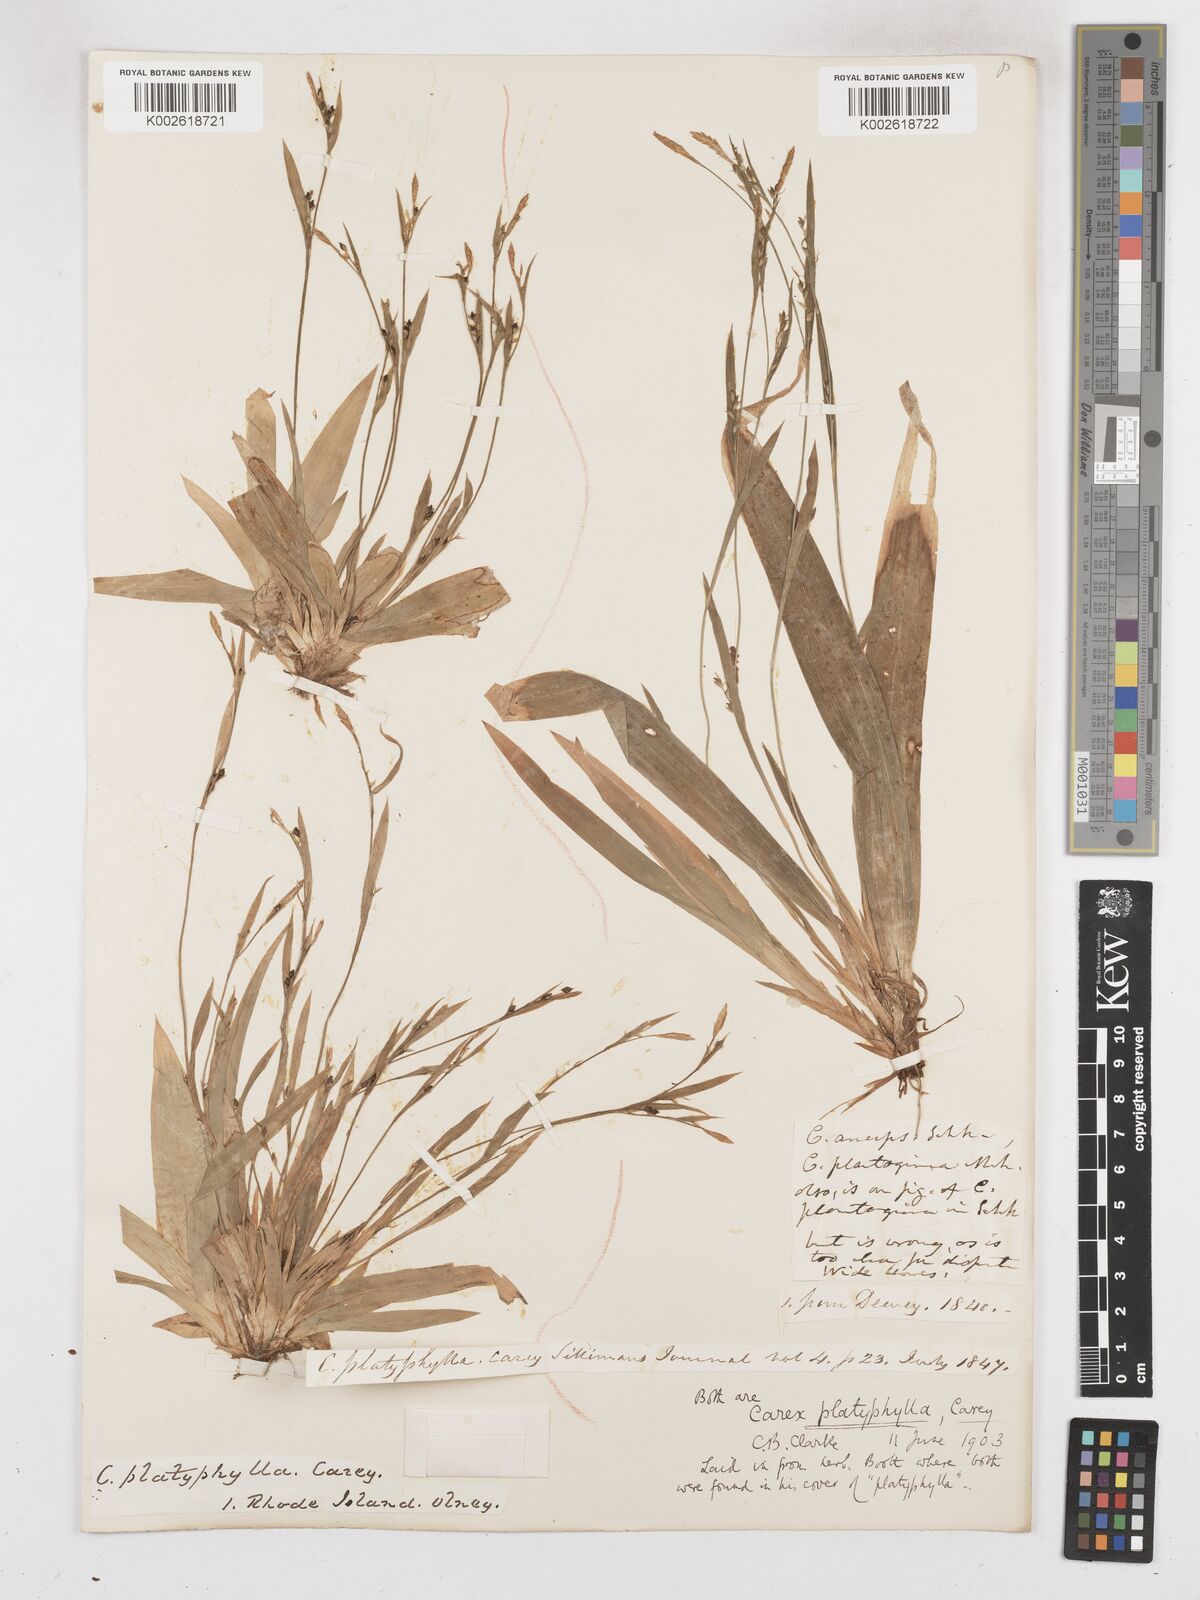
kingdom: Plantae
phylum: Tracheophyta
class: Liliopsida
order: Poales
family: Cyperaceae
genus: Carex
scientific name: Carex platyphylla
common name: Broad-leaved sedge
